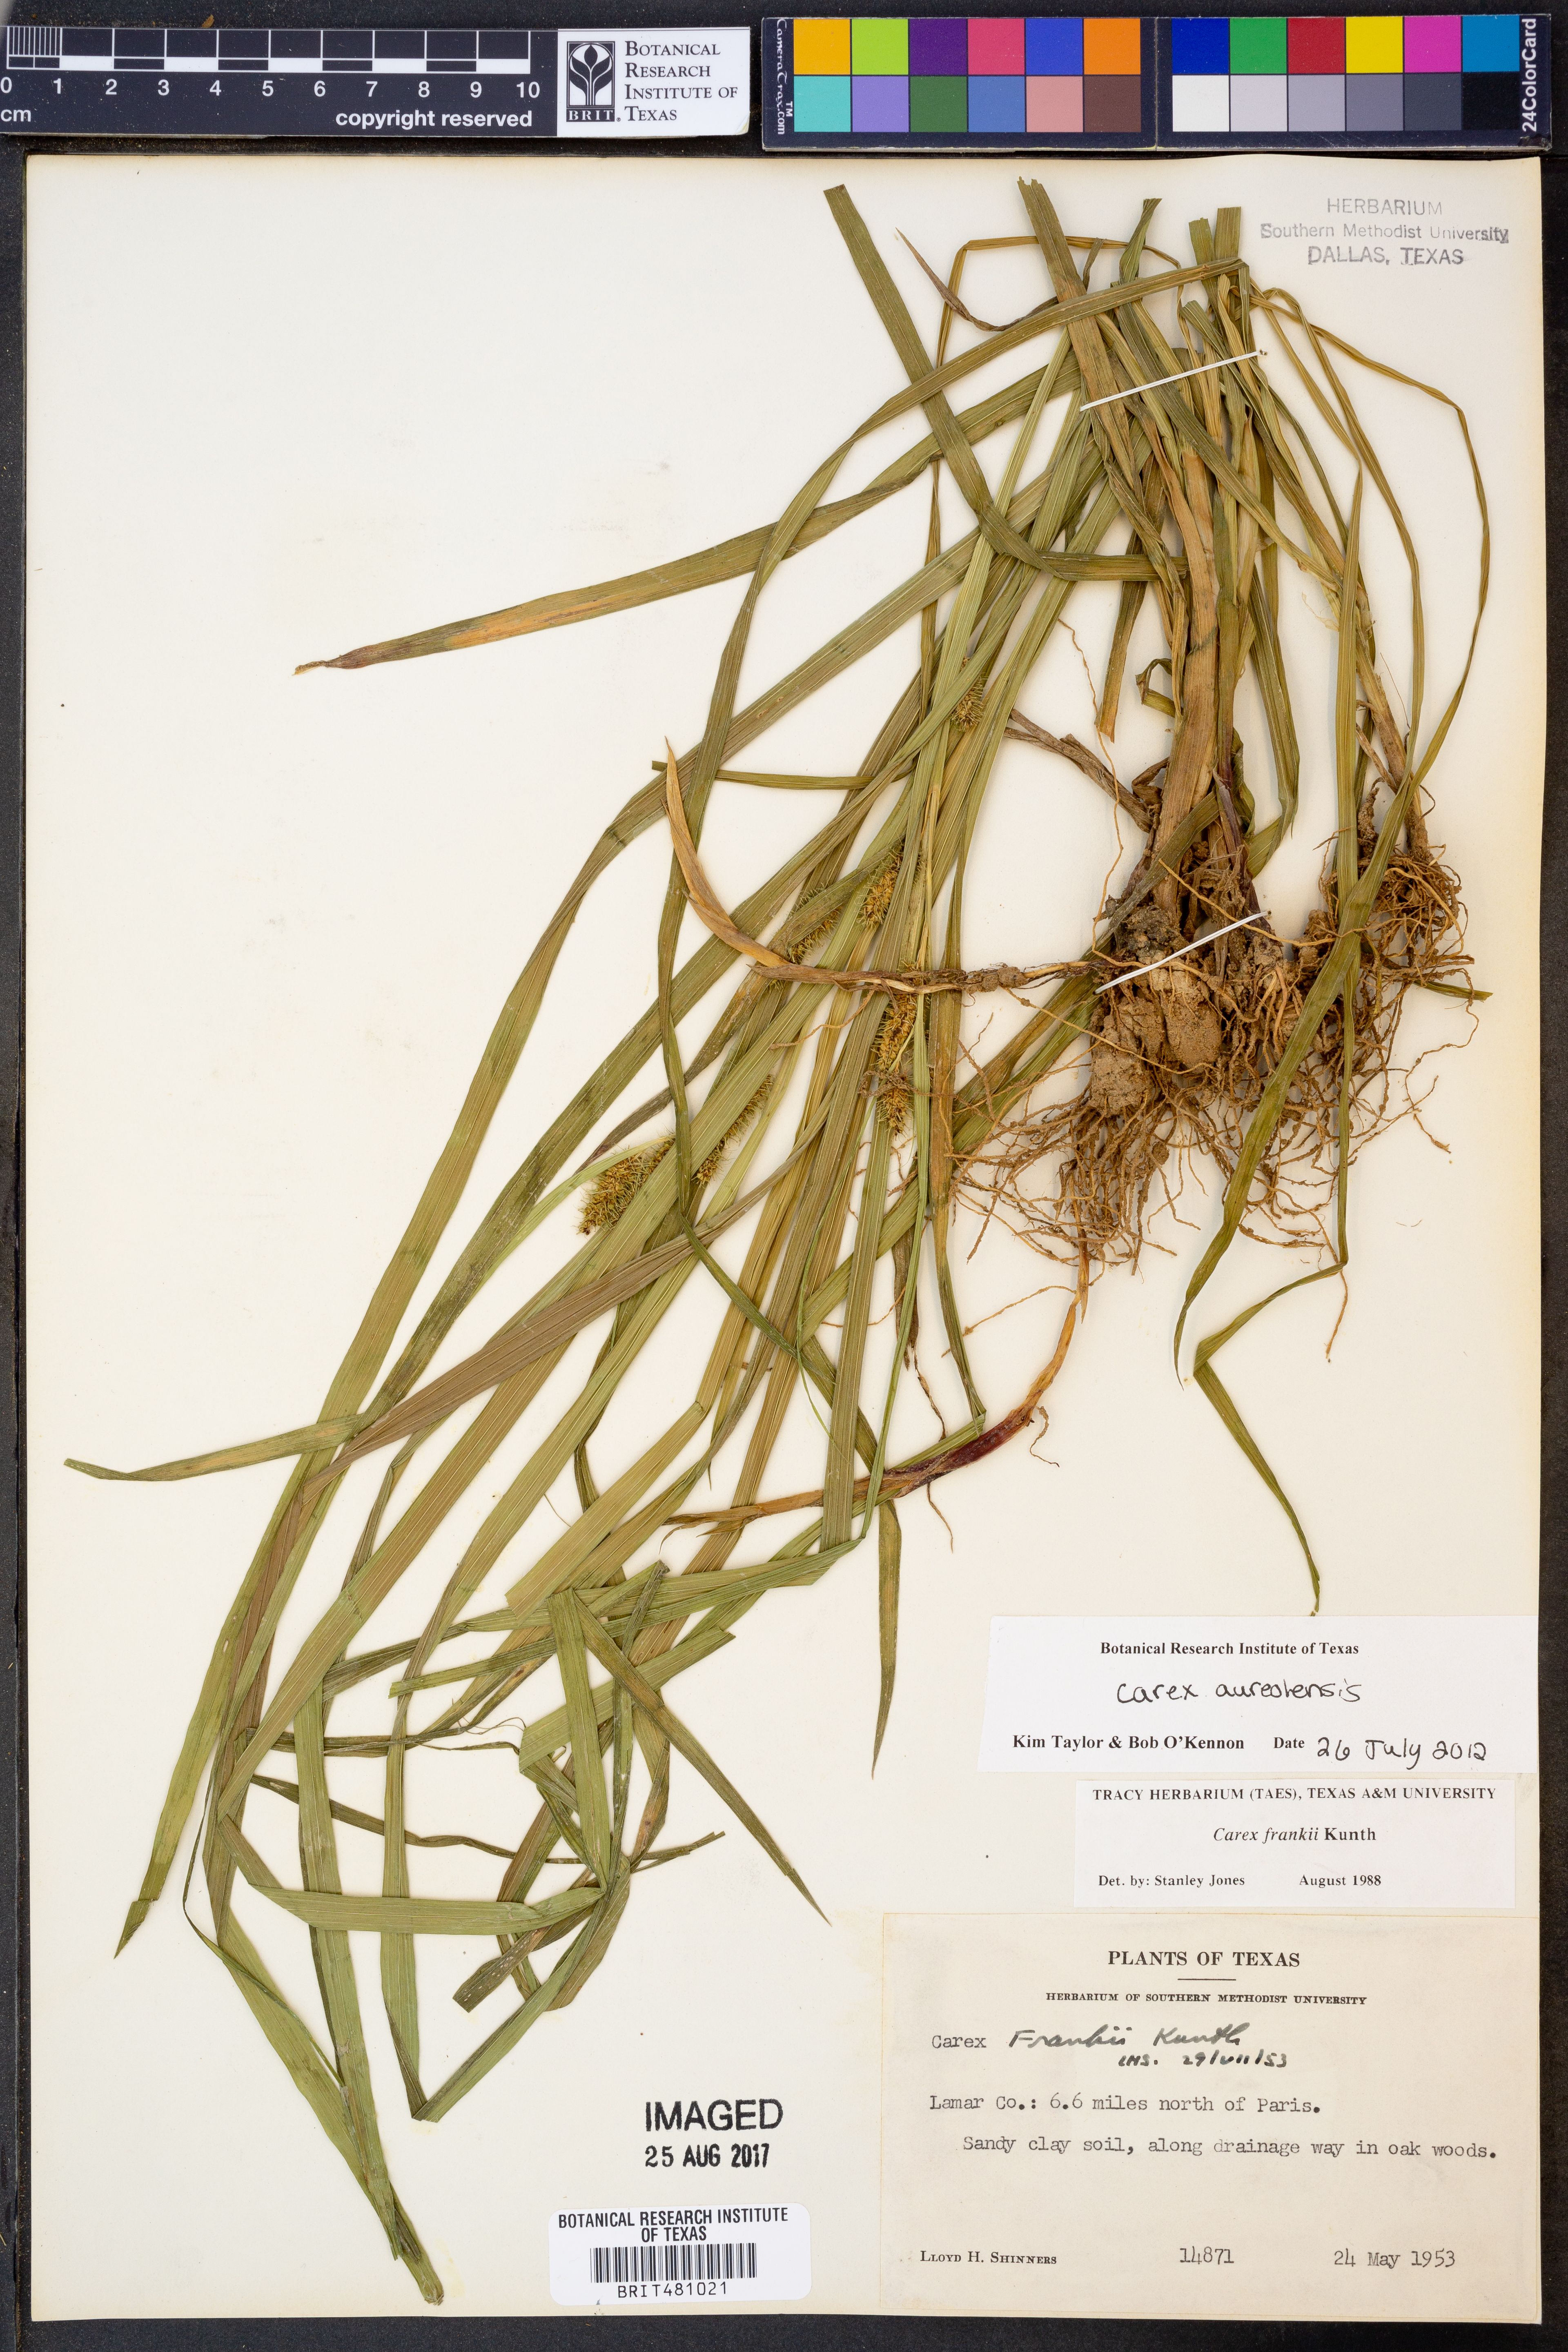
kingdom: Plantae
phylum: Tracheophyta
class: Liliopsida
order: Poales
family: Cyperaceae
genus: Carex
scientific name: Carex aureolensis
